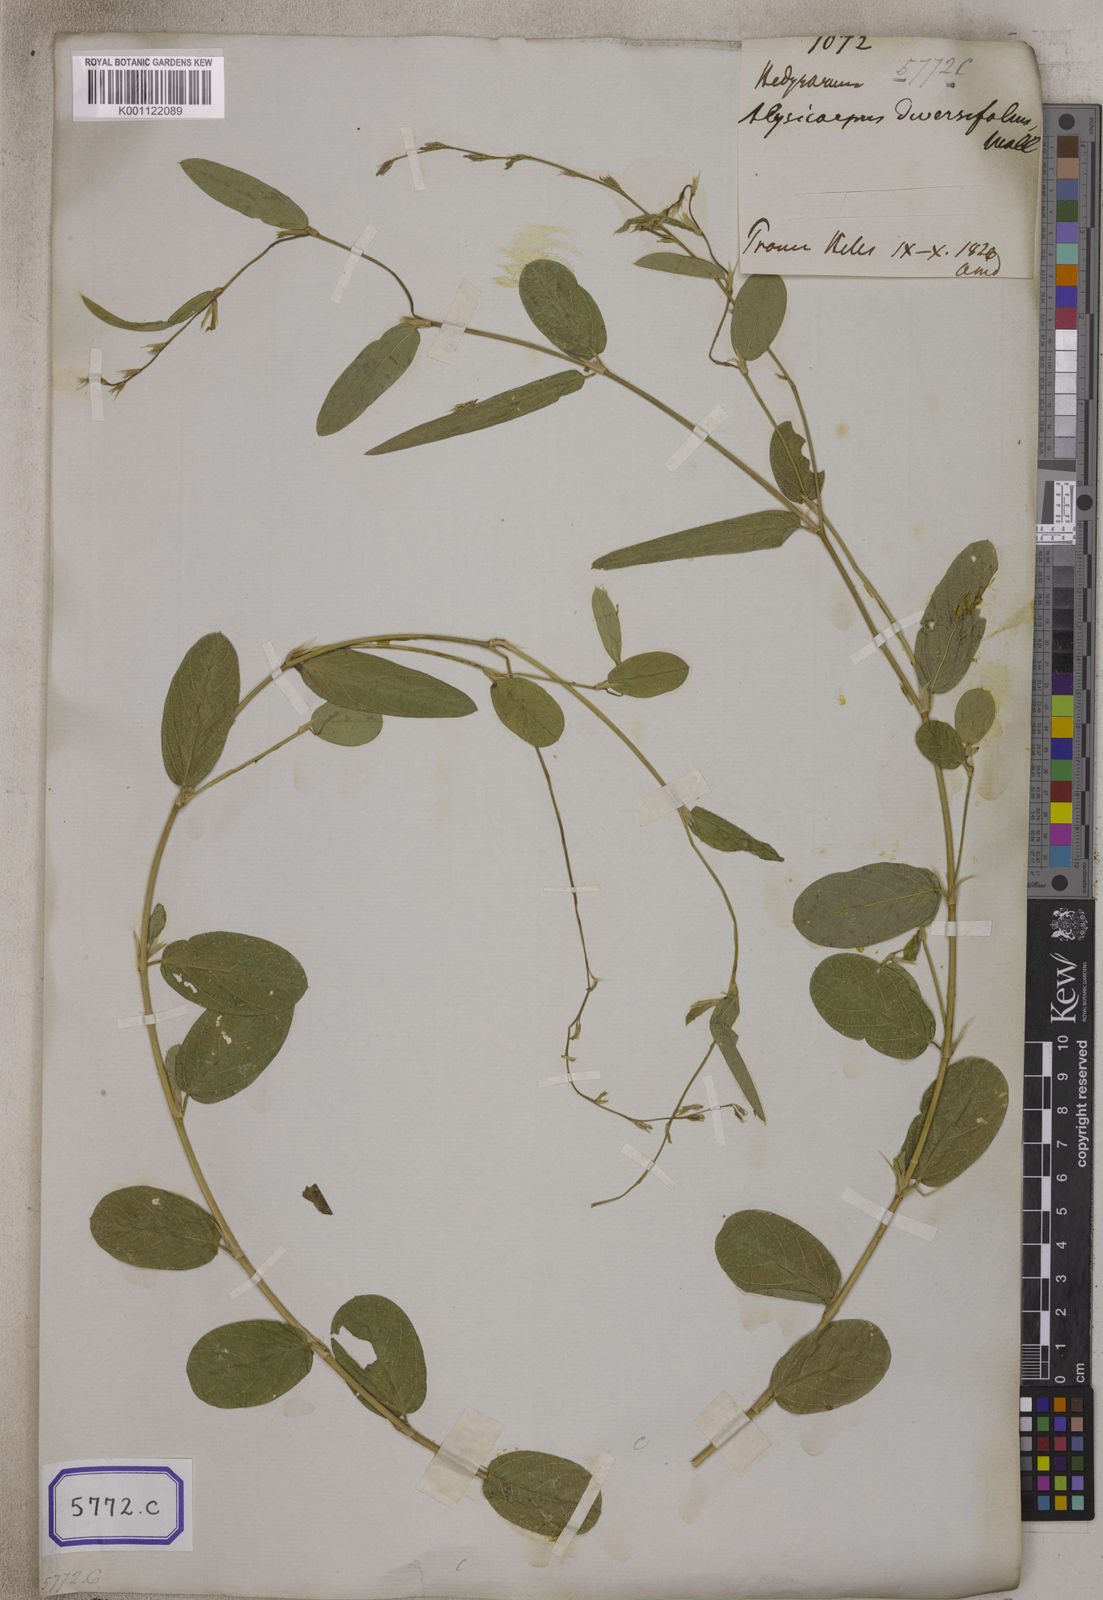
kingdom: Plantae
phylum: Tracheophyta
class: Magnoliopsida
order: Fabales
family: Fabaceae
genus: Alysicarpus
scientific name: Alysicarpus vaginalis
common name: White moneywort
